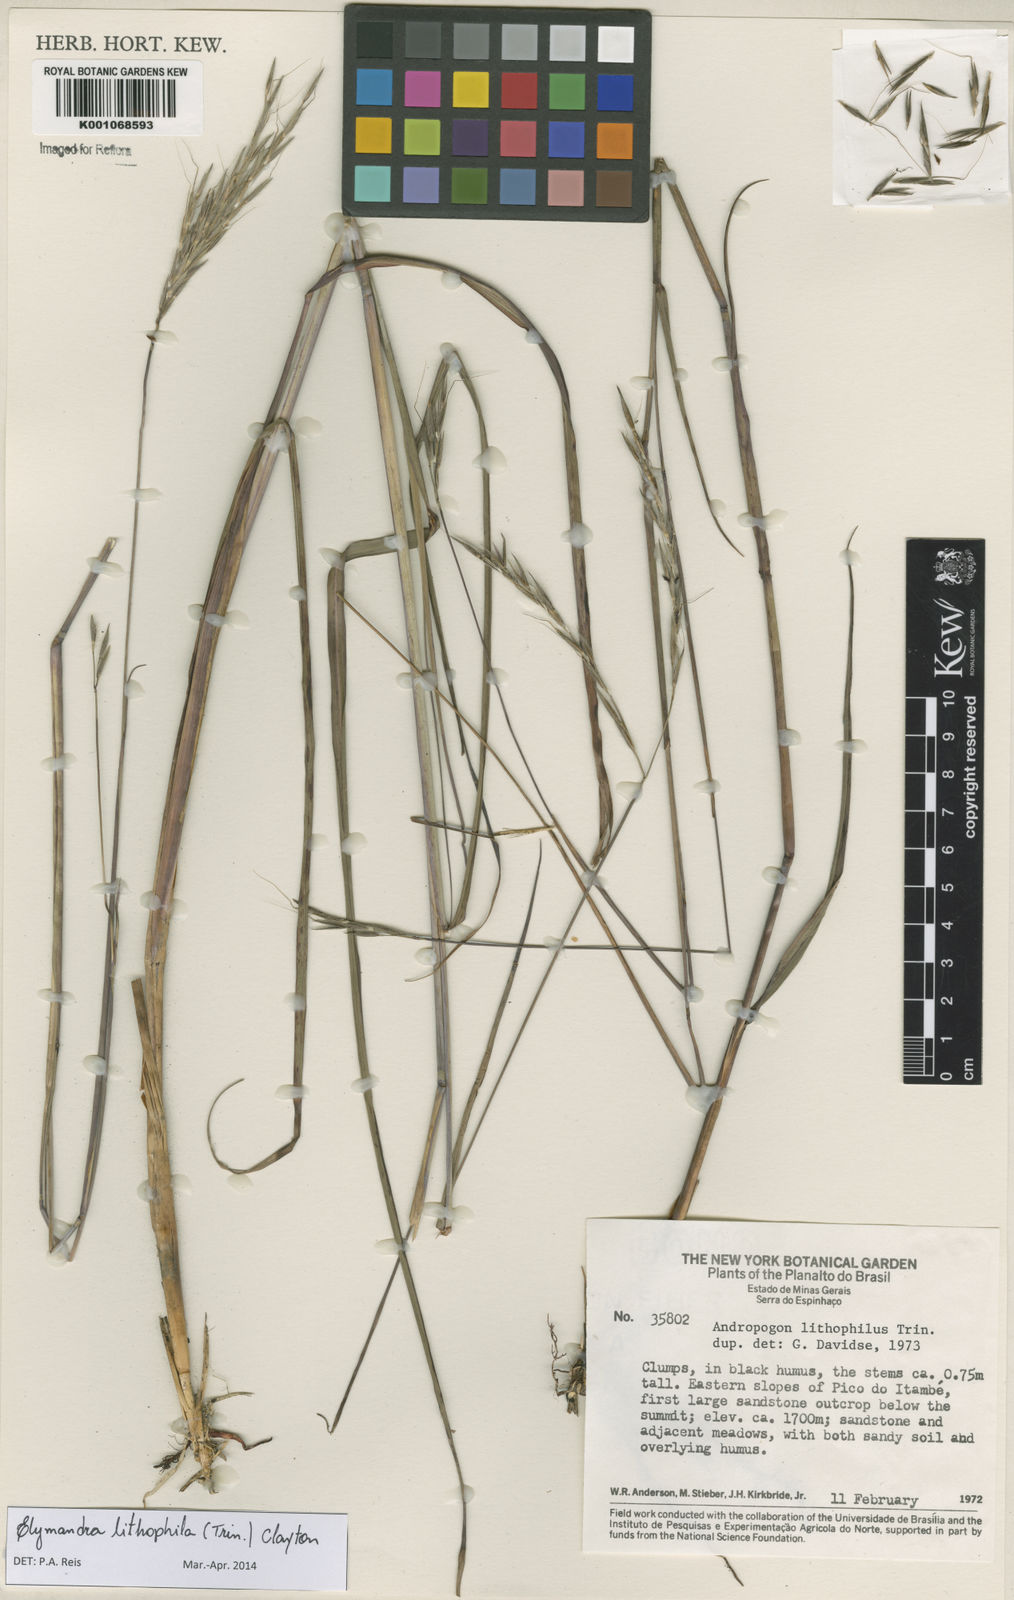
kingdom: Plantae
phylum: Tracheophyta
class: Liliopsida
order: Poales
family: Poaceae
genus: Elymandra
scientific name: Elymandra lithophila
